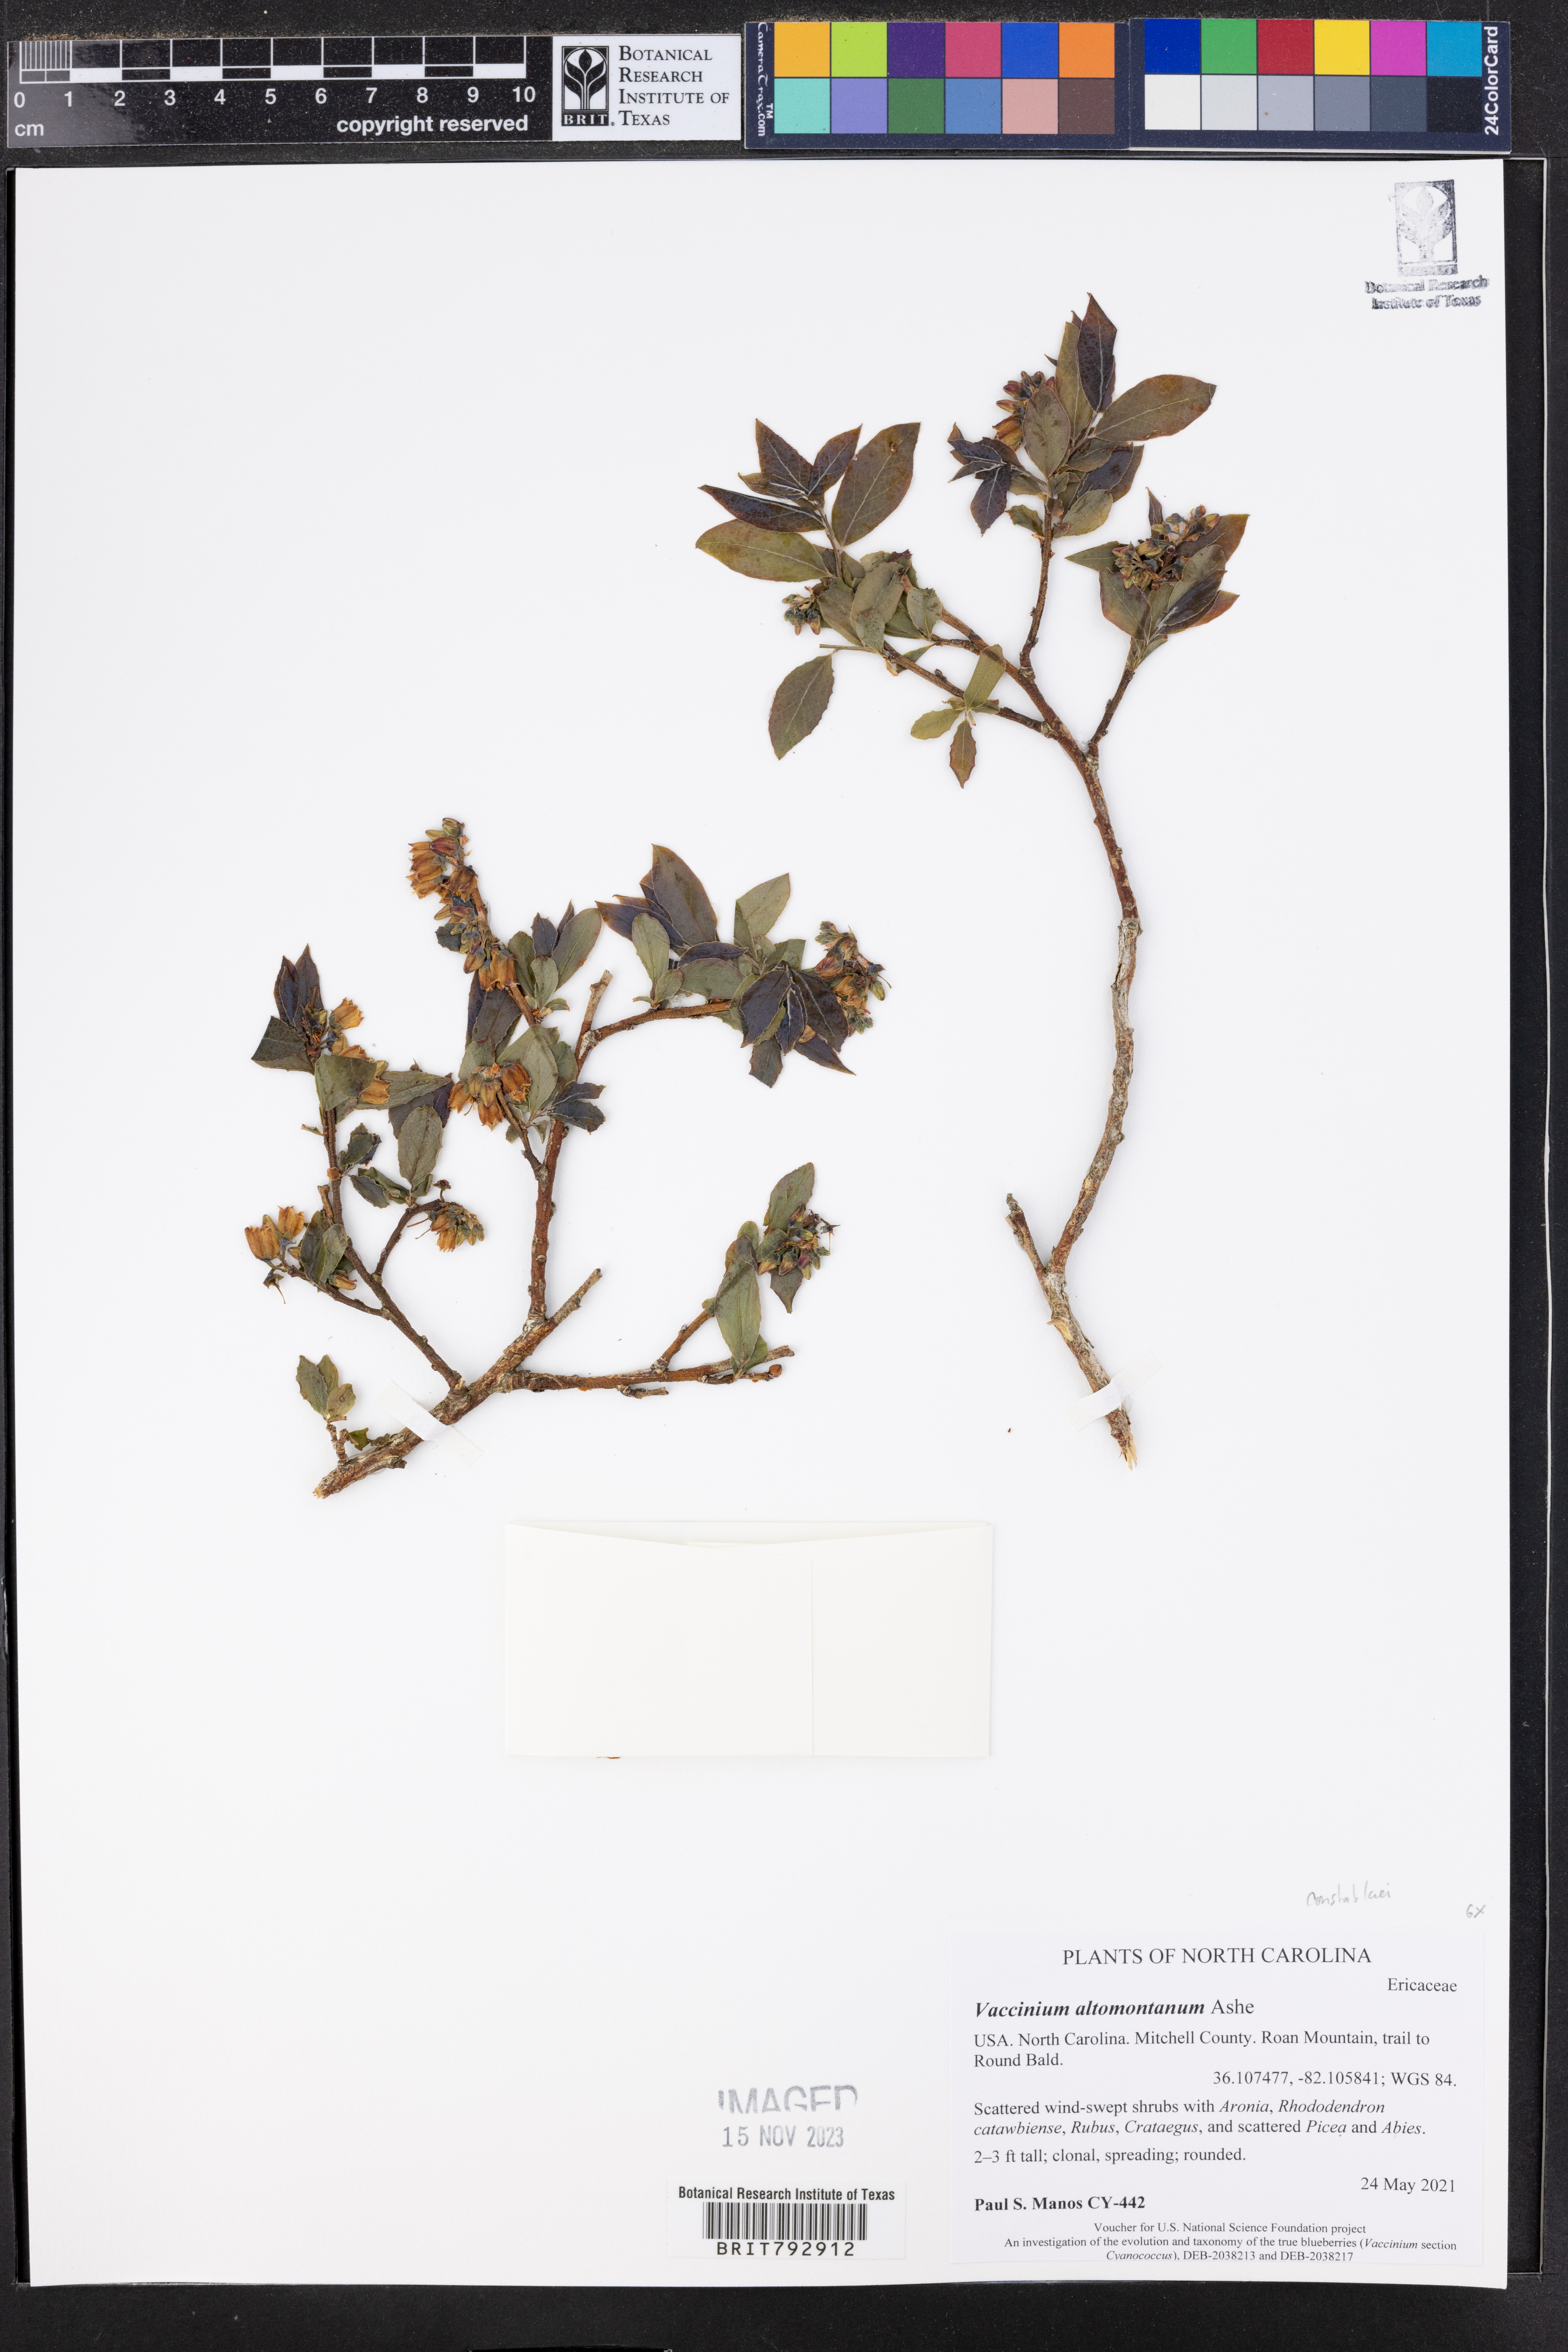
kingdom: Plantae
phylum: Tracheophyta
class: Magnoliopsida
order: Ericales
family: Ericaceae
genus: Vaccinium
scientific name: Vaccinium pallidum
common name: Blue ridge blueberry
